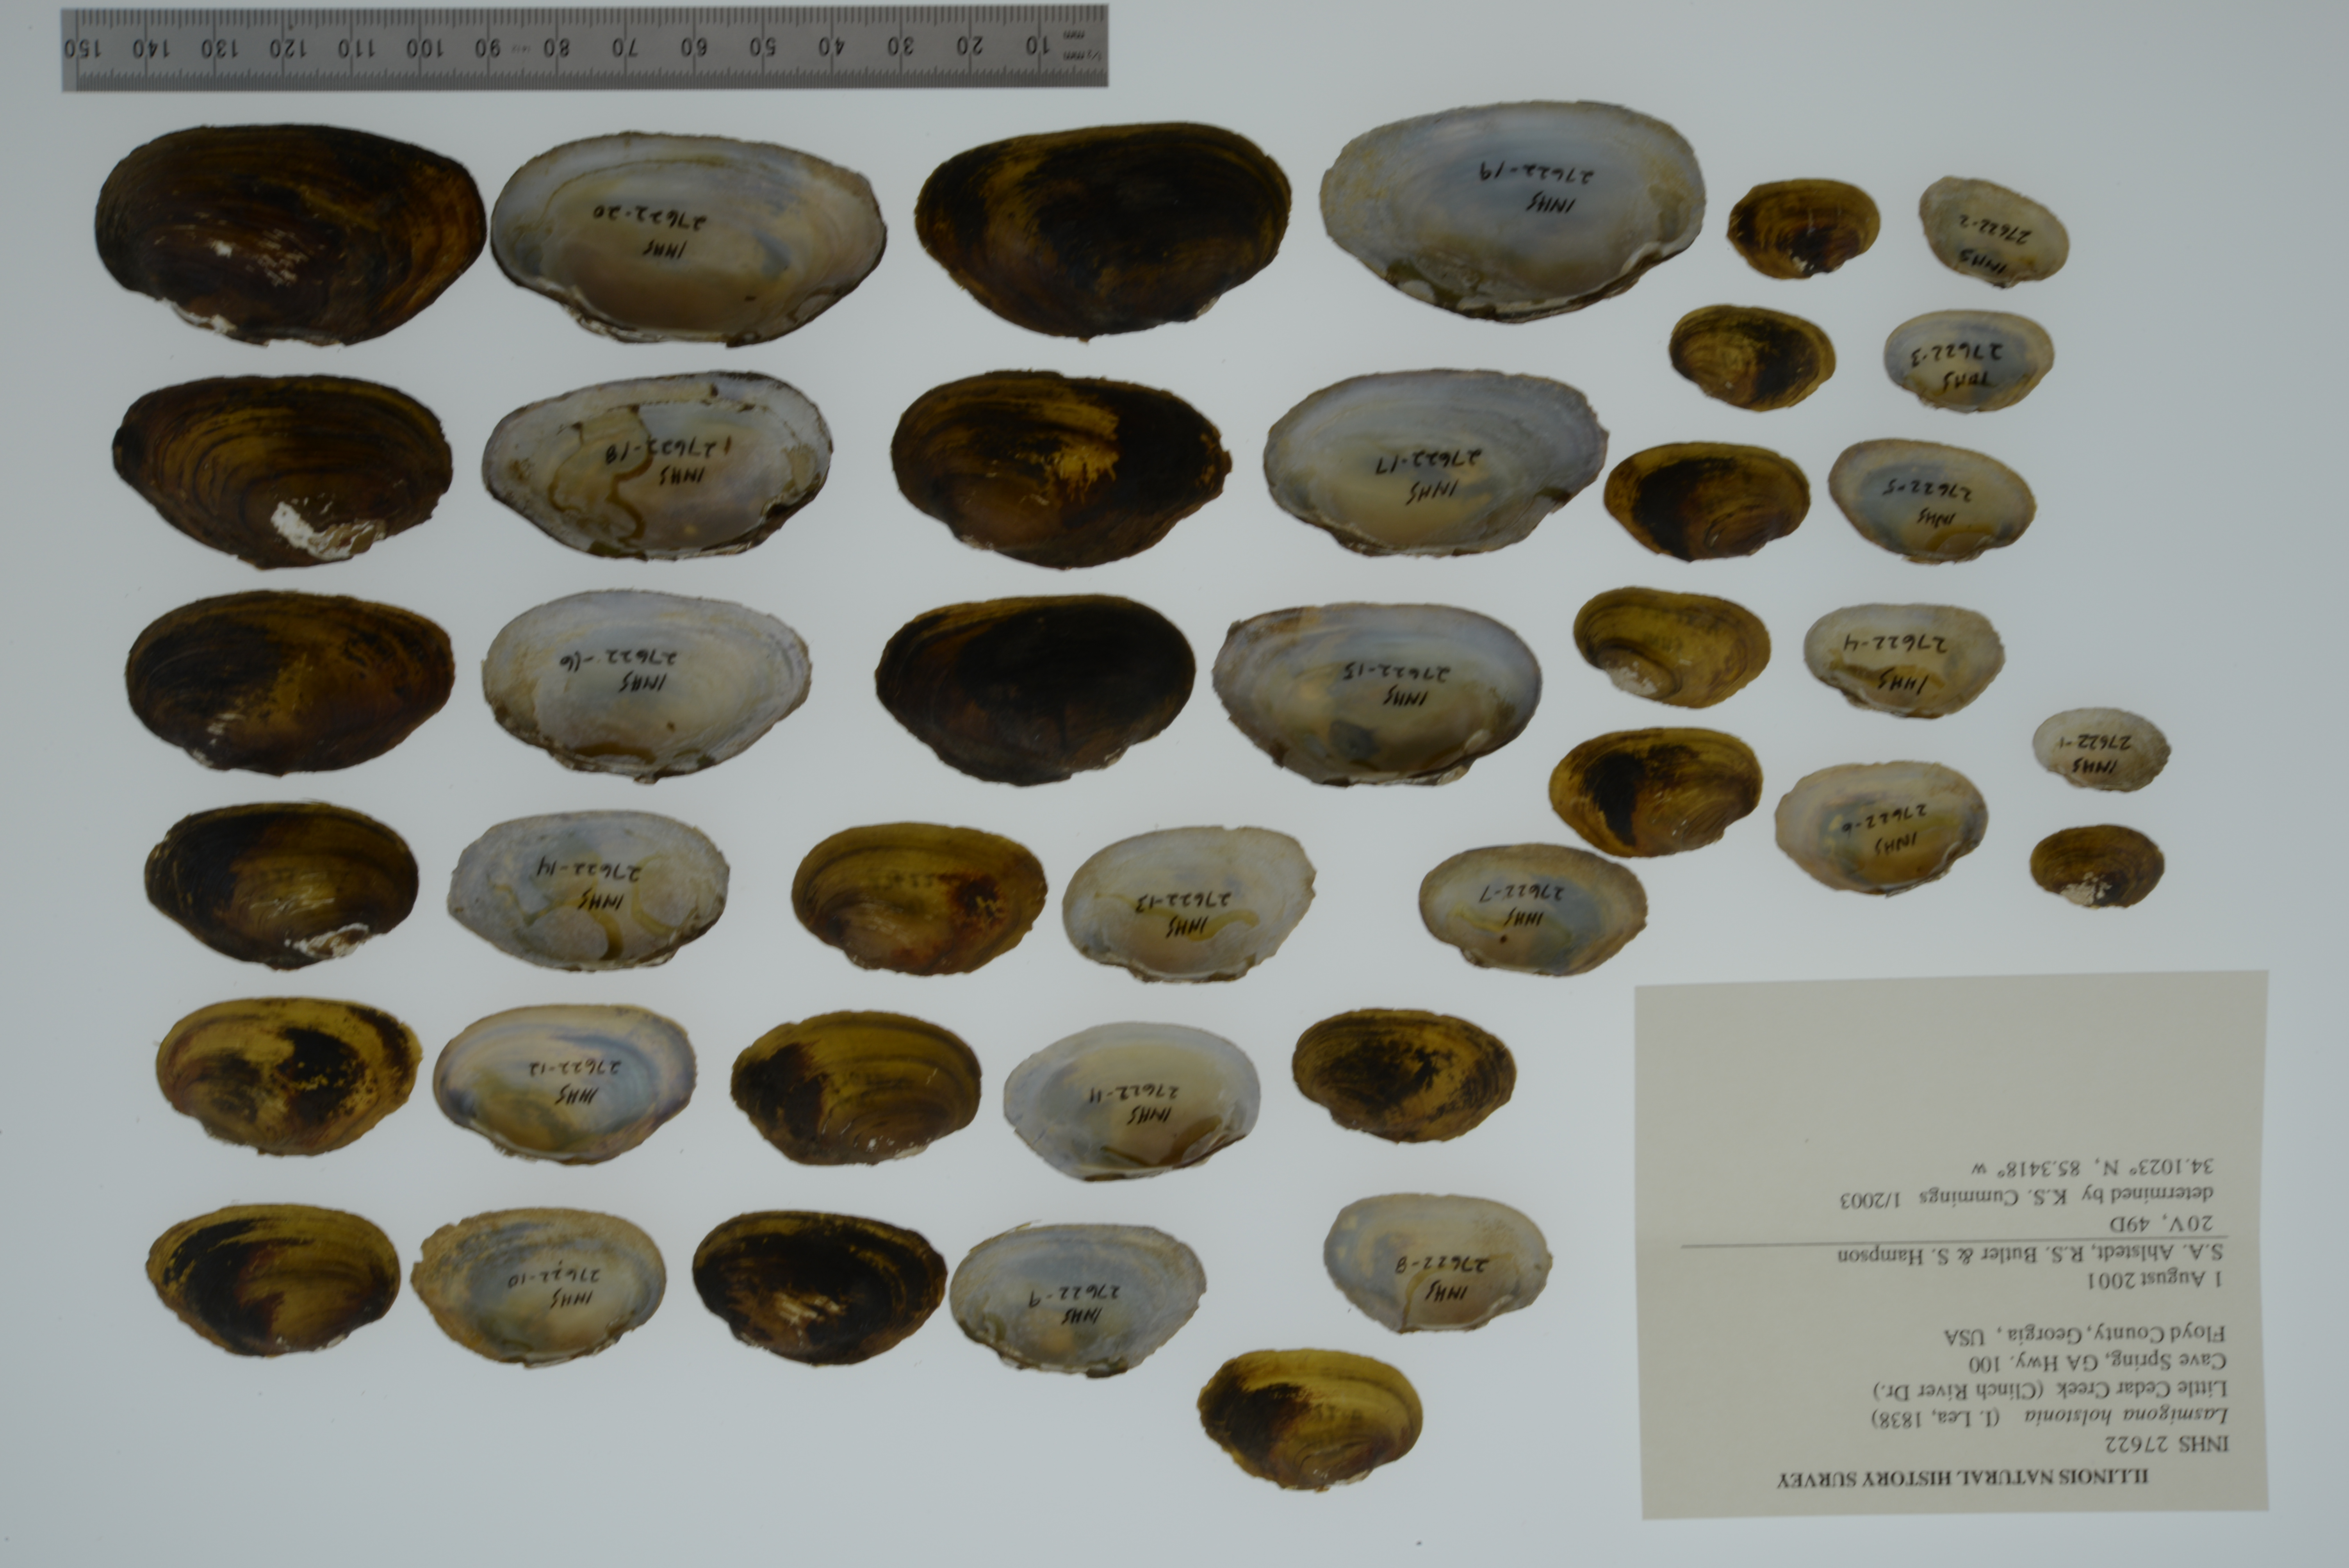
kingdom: Animalia
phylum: Mollusca
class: Bivalvia
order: Unionida
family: Unionidae
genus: Lasmigona
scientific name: Lasmigona holstonia
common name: Tennessee heelsplitter
